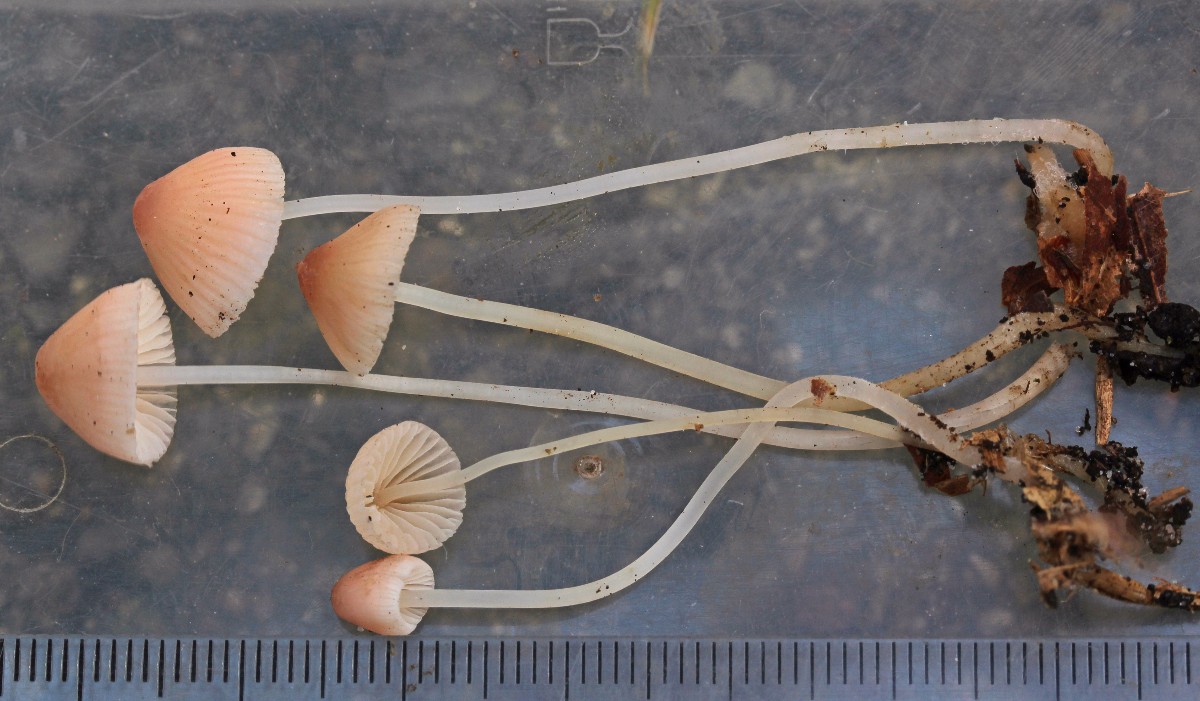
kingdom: Fungi
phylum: Basidiomycota
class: Agaricomycetes
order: Agaricales
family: Mycenaceae
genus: Mycena
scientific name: Mycena metata
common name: rødlig huesvamp
